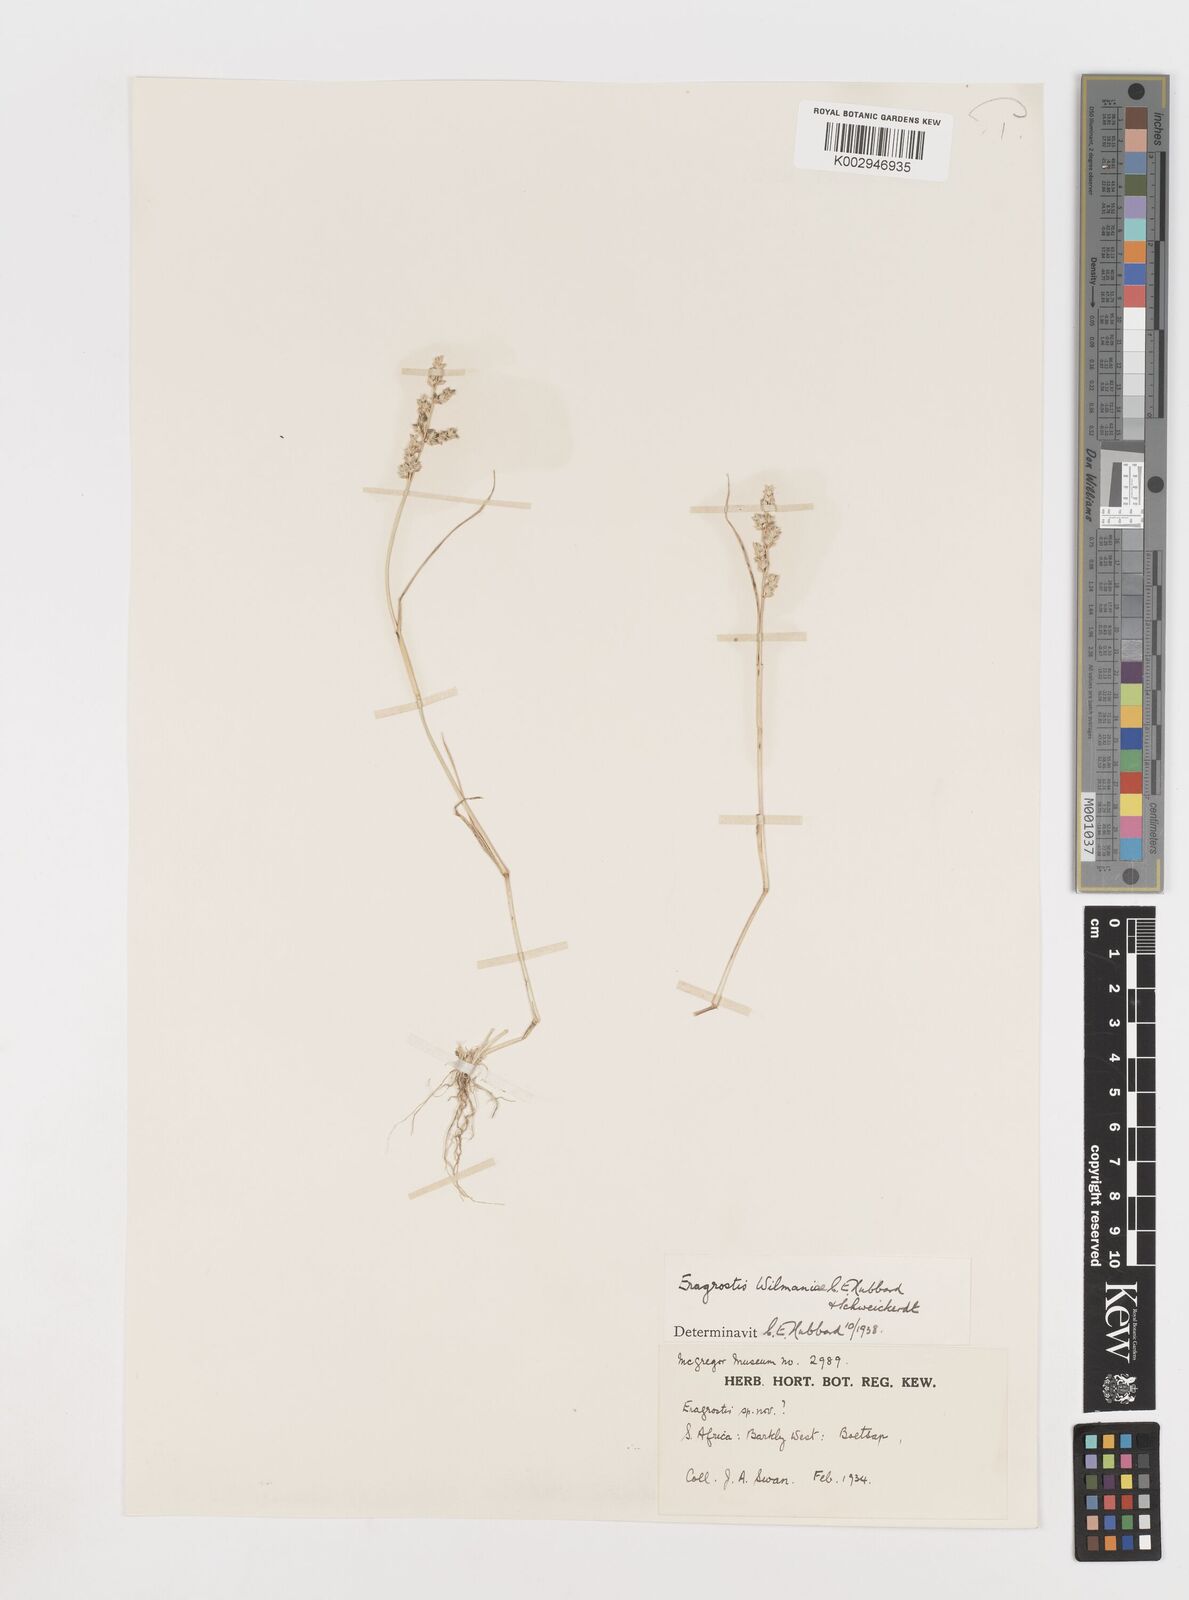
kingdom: Plantae
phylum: Tracheophyta
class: Liliopsida
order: Poales
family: Poaceae
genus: Eragrostis
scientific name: Eragrostis macrochlamys
